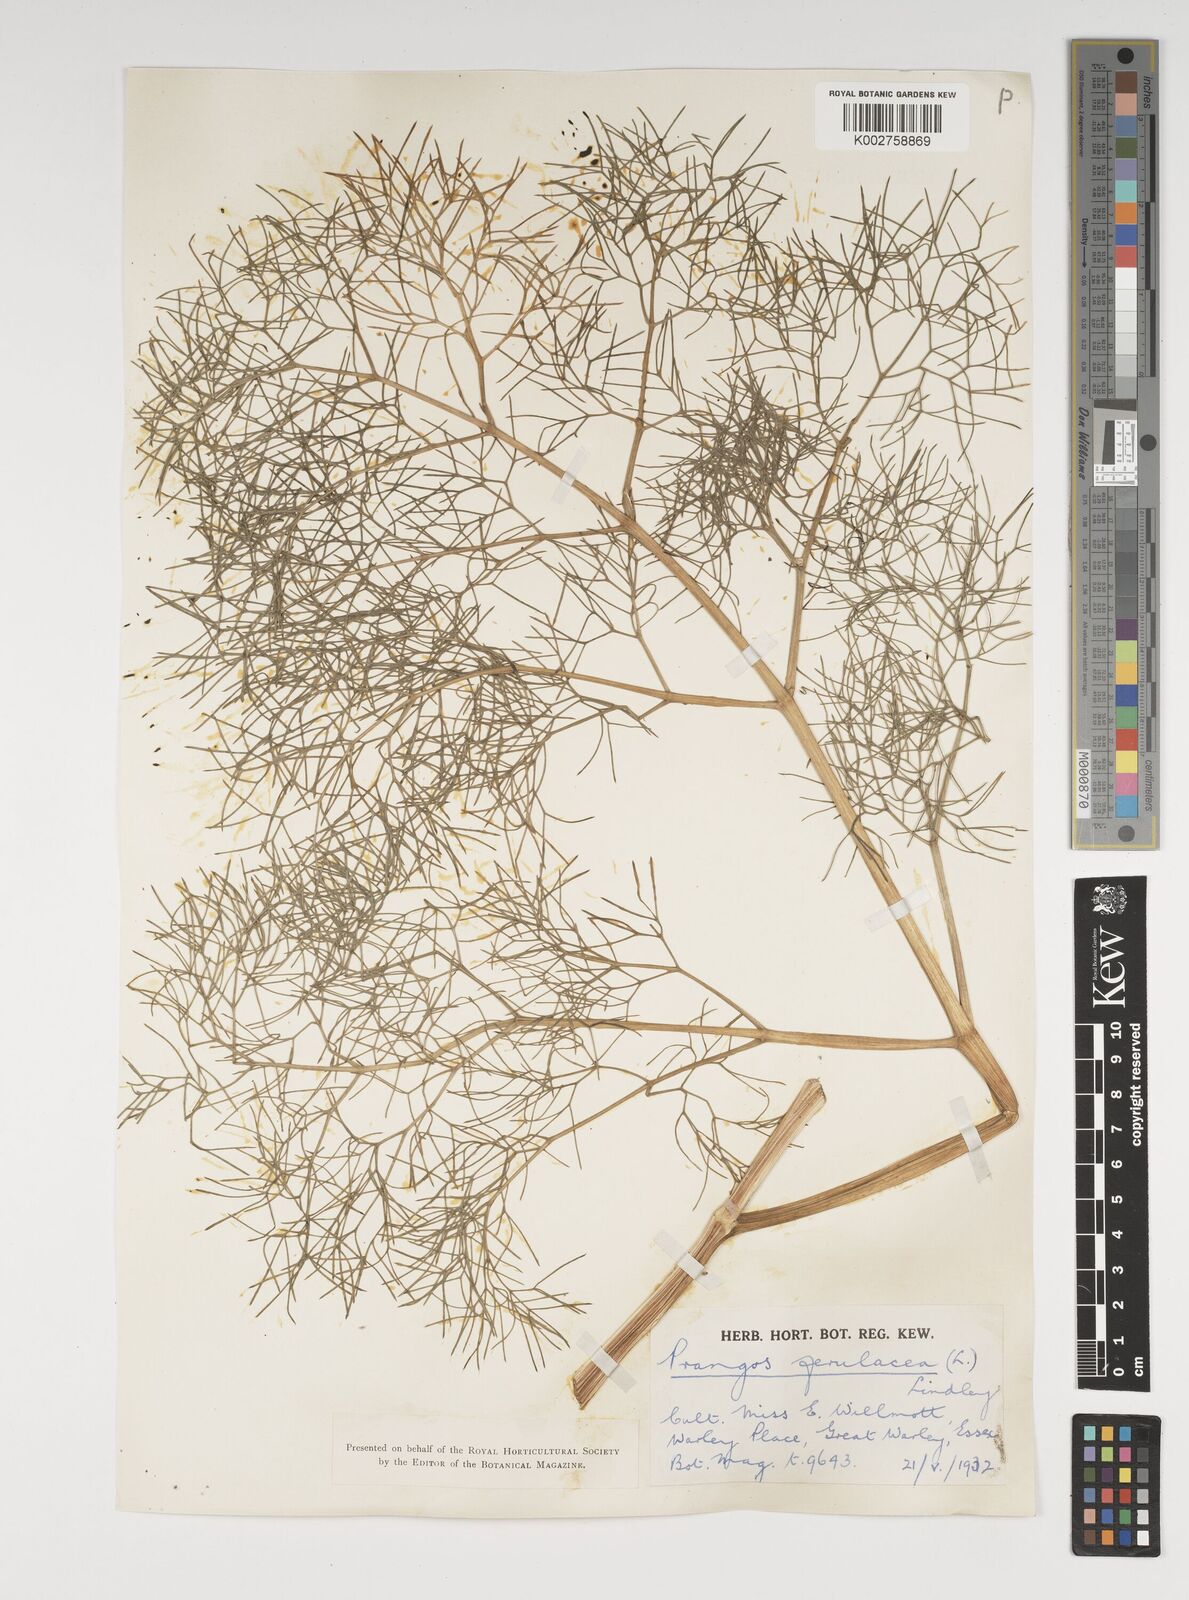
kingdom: Plantae
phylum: Tracheophyta
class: Magnoliopsida
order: Apiales
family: Apiaceae
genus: Prangos
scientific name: Prangos ferulacea
